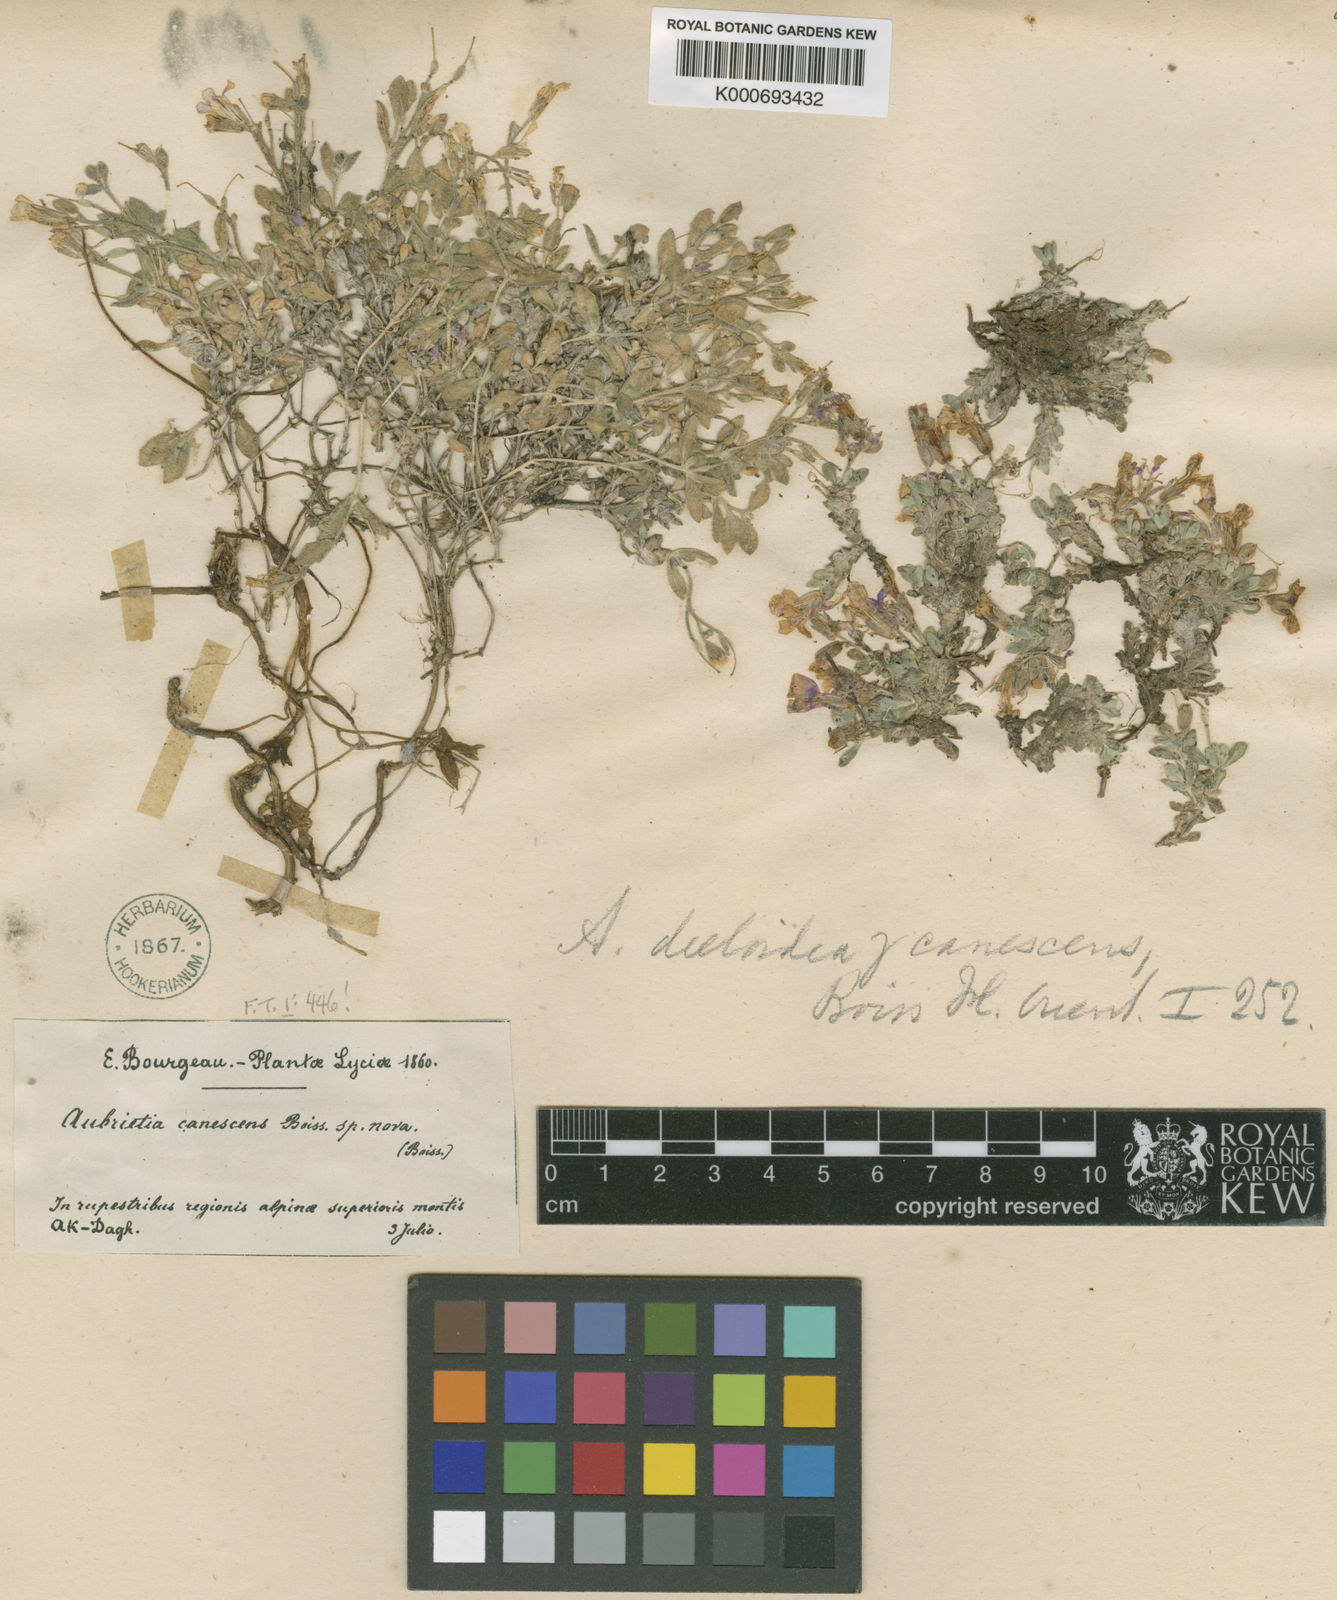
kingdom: Plantae
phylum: Tracheophyta
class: Magnoliopsida
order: Brassicales
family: Brassicaceae
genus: Aubrieta
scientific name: Aubrieta deltoidea
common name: Aubretia
